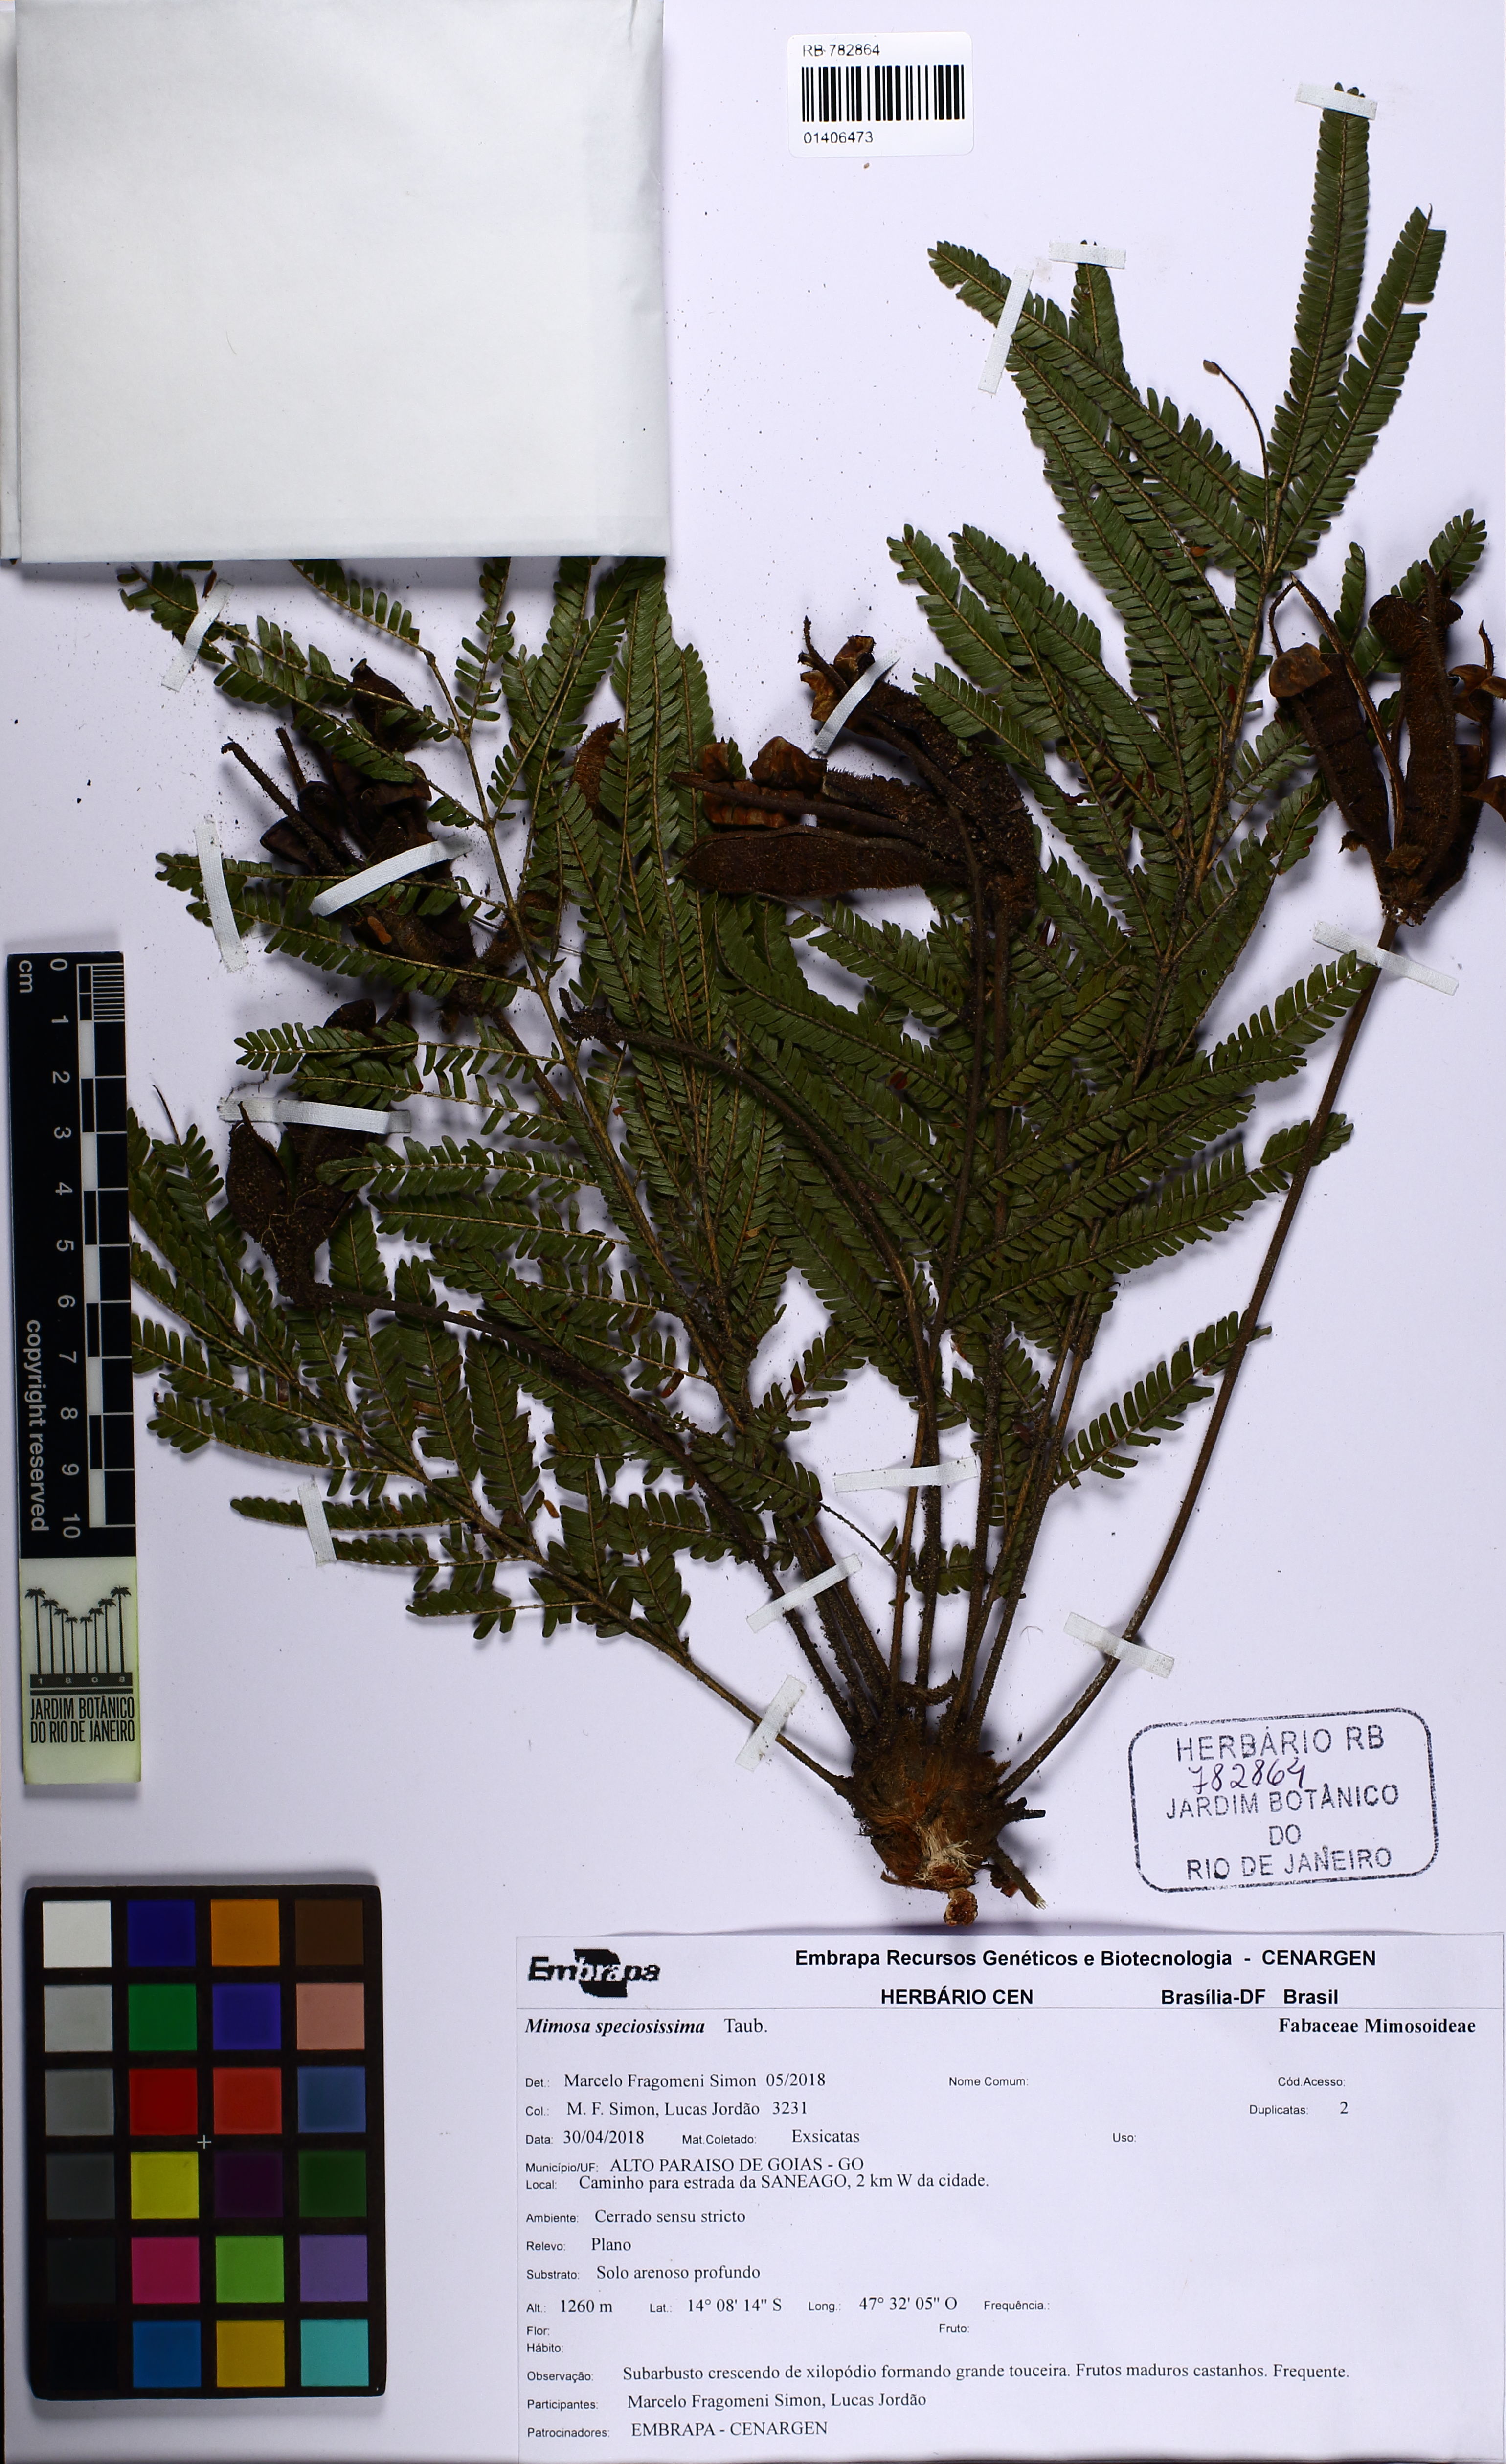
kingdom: Plantae
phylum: Tracheophyta
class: Magnoliopsida
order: Fabales
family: Fabaceae
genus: Mimosa
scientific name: Mimosa speciosissima
